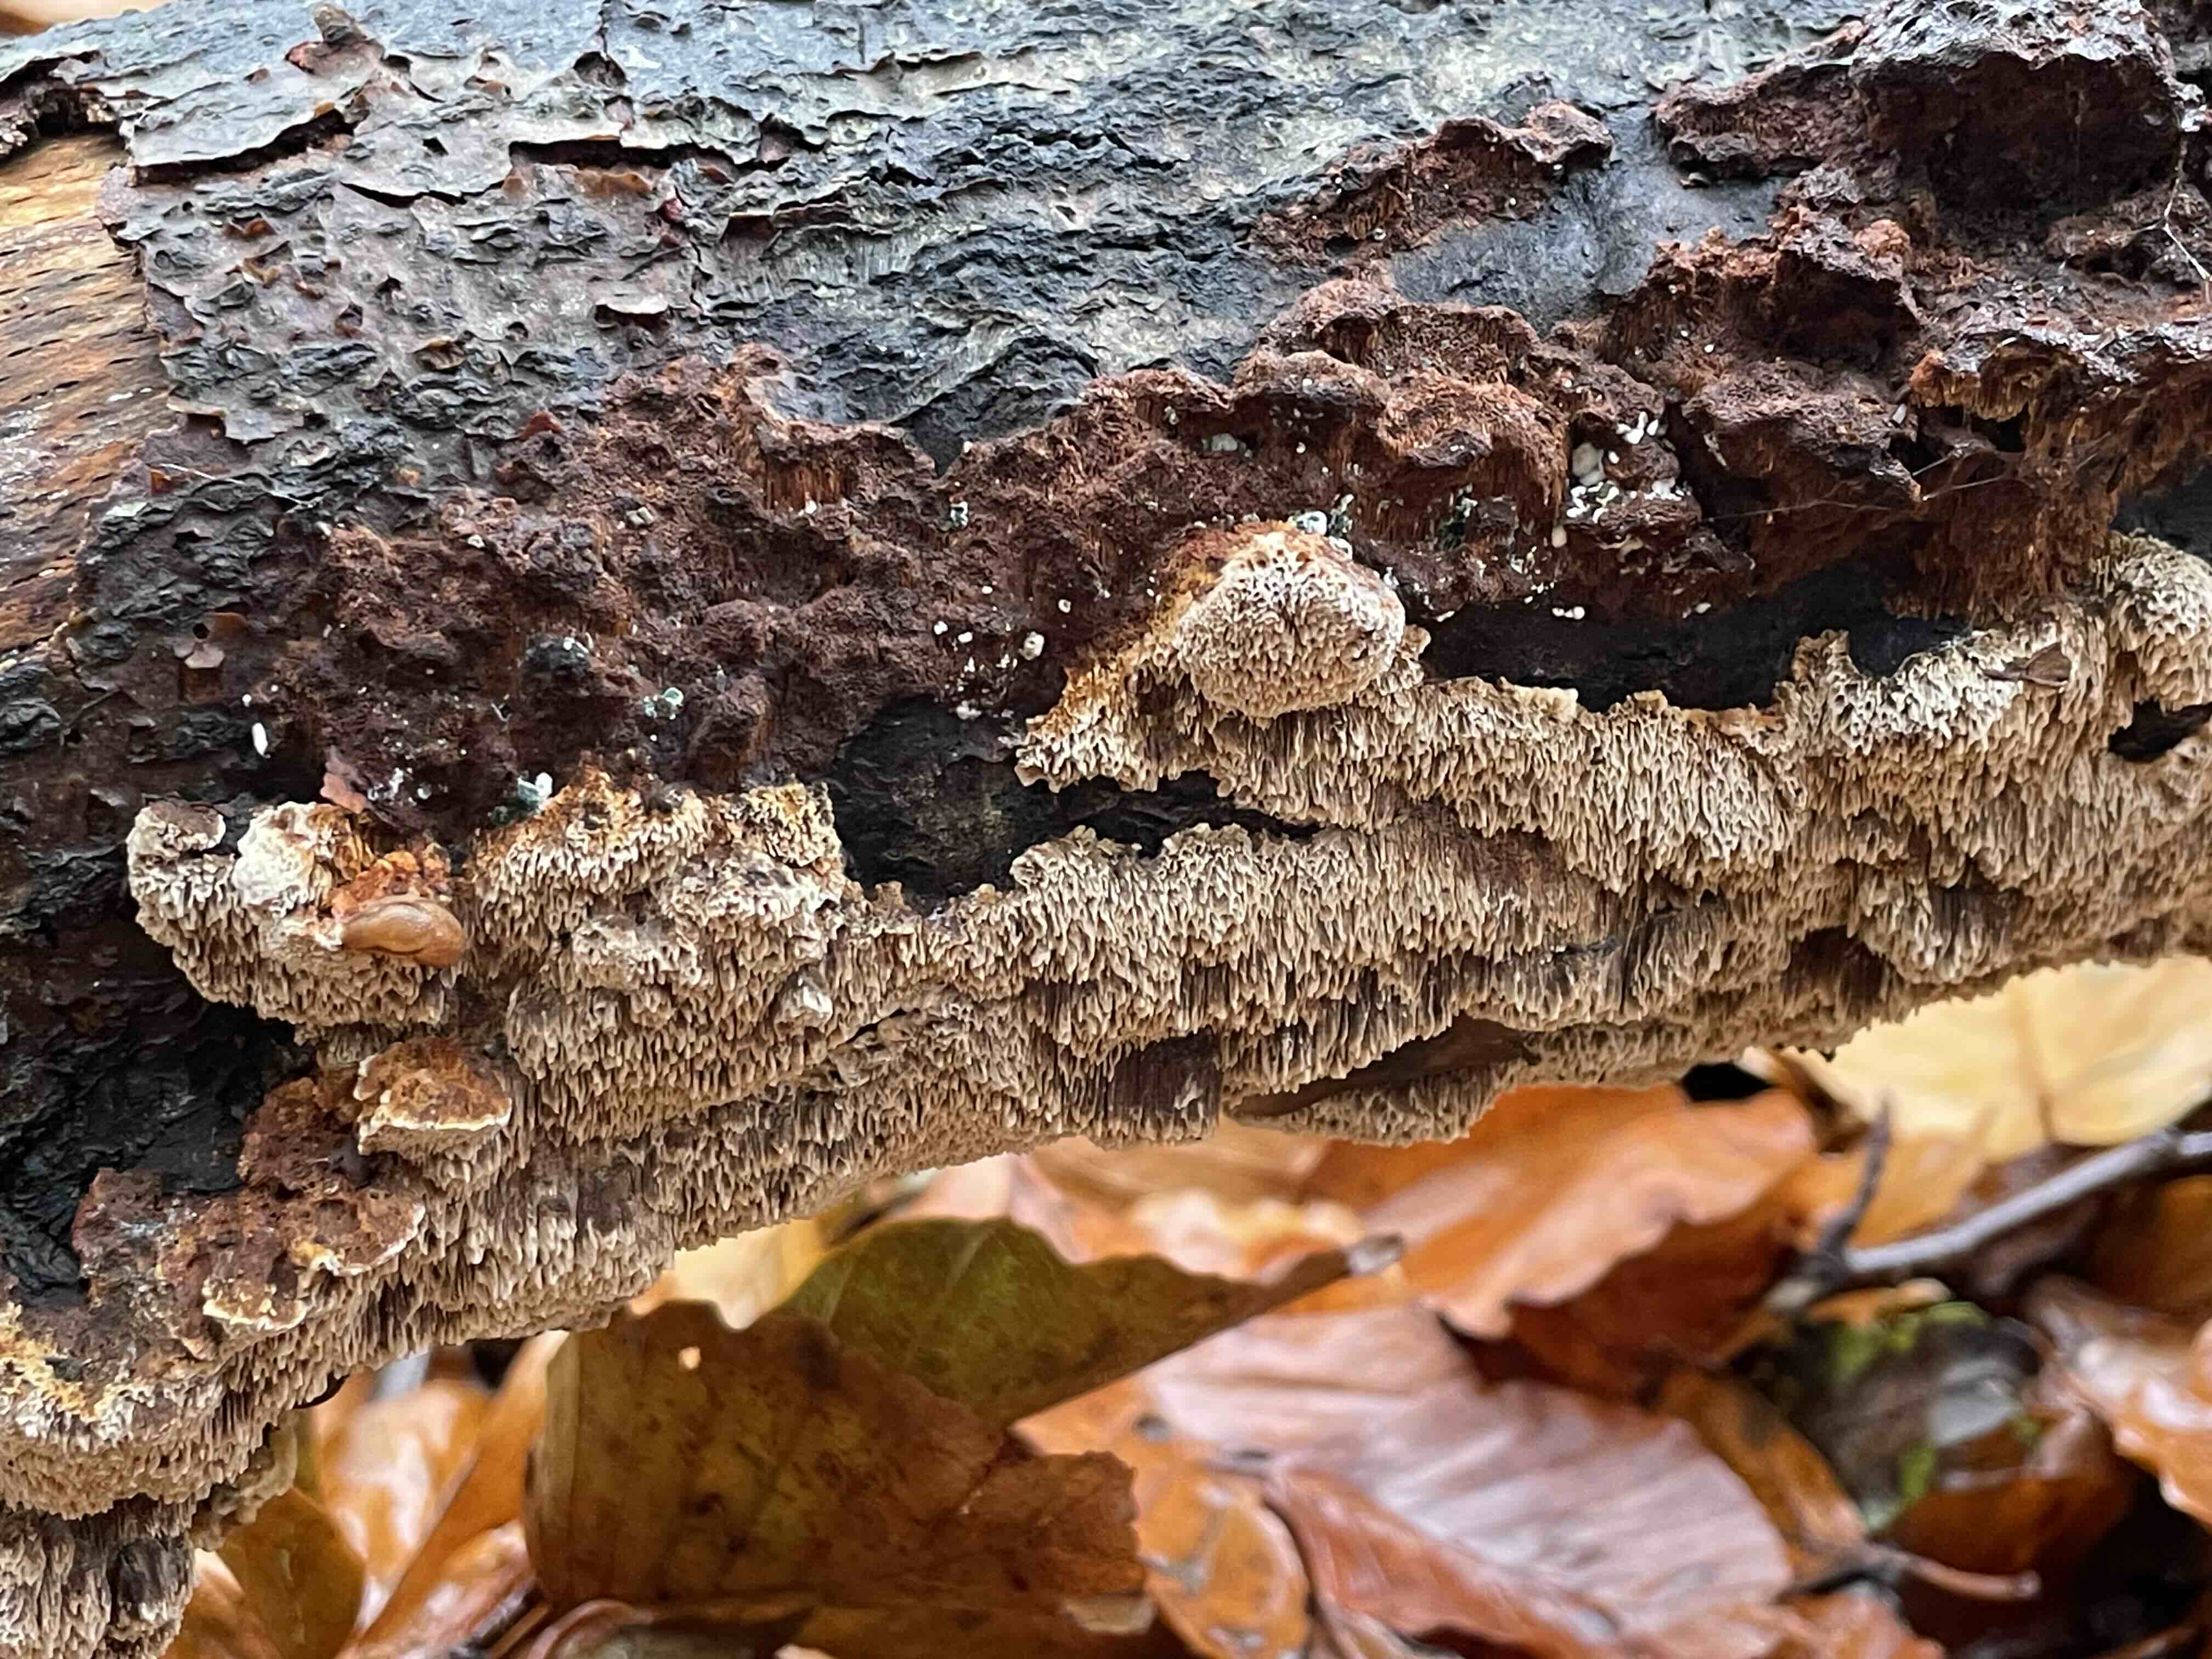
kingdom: Fungi
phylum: Basidiomycota
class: Agaricomycetes
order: Hymenochaetales
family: Hymenochaetaceae
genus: Mensularia
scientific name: Mensularia nodulosa
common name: bøge-spejlporesvamp
